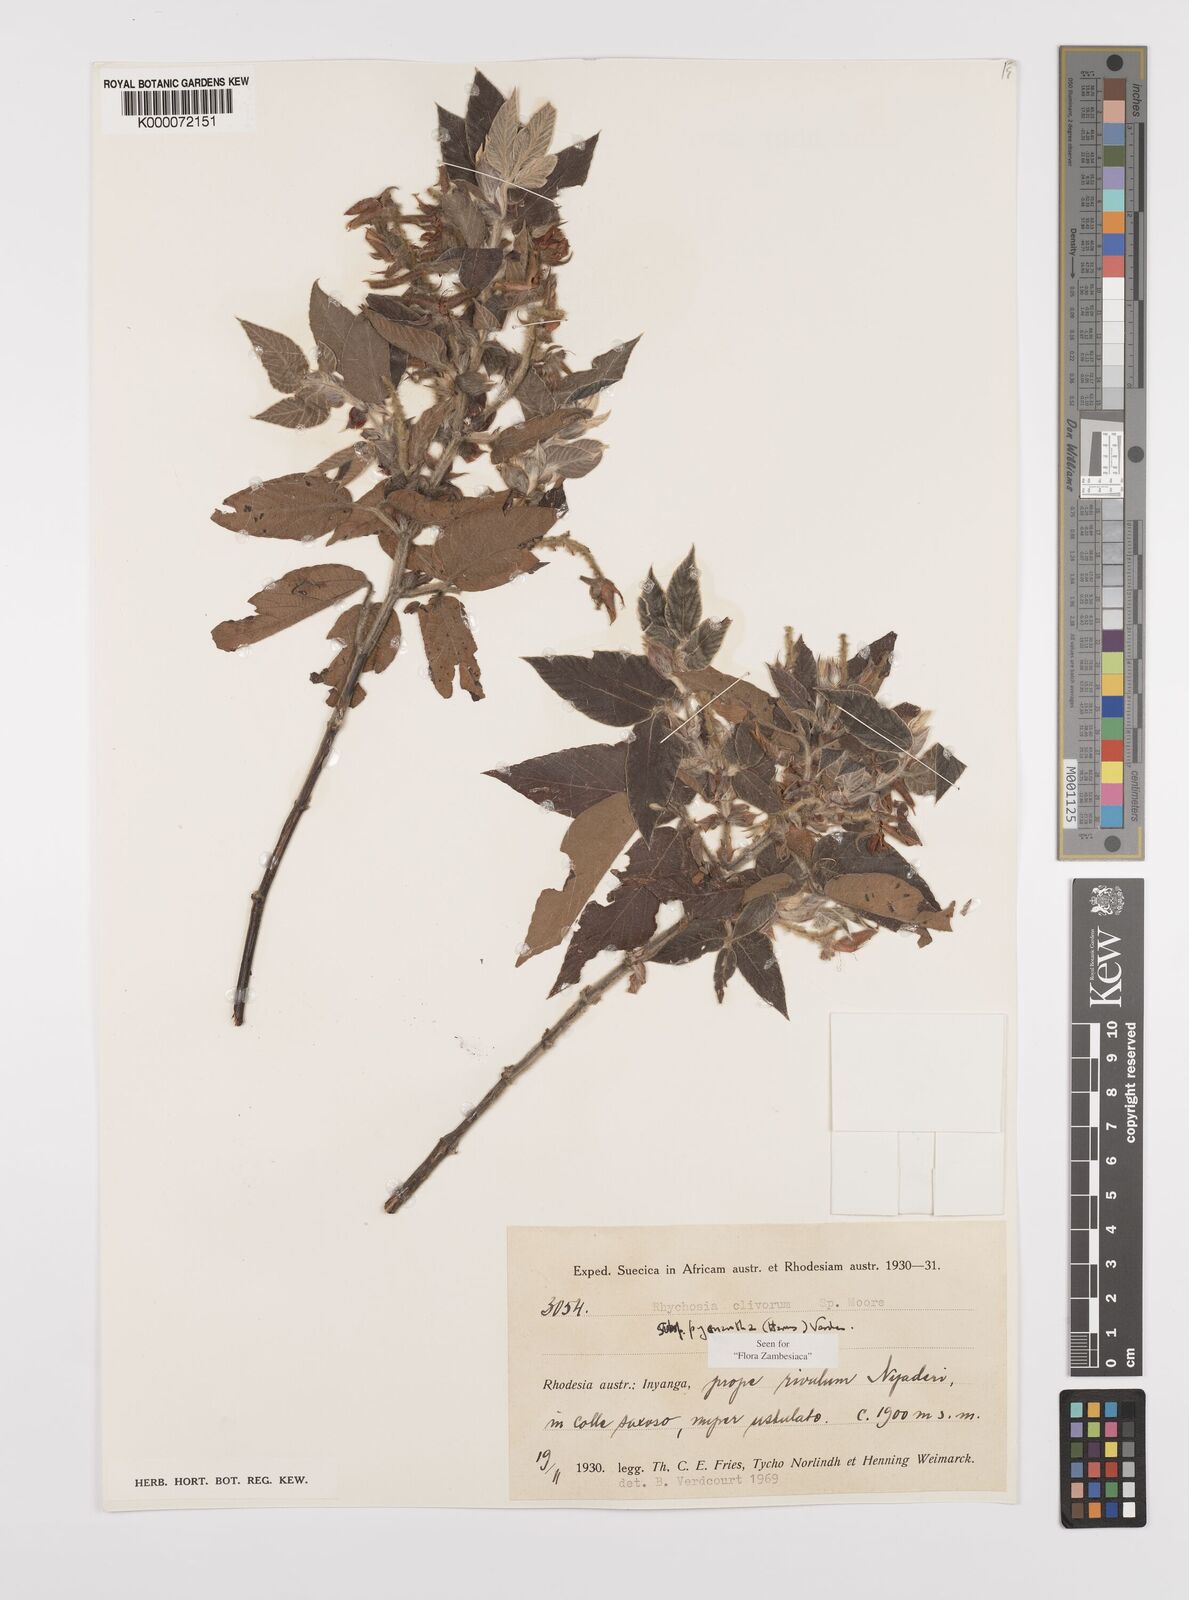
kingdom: Plantae
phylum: Tracheophyta
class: Magnoliopsida
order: Fabales
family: Fabaceae
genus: Rhynchosia
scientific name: Rhynchosia clivorum
